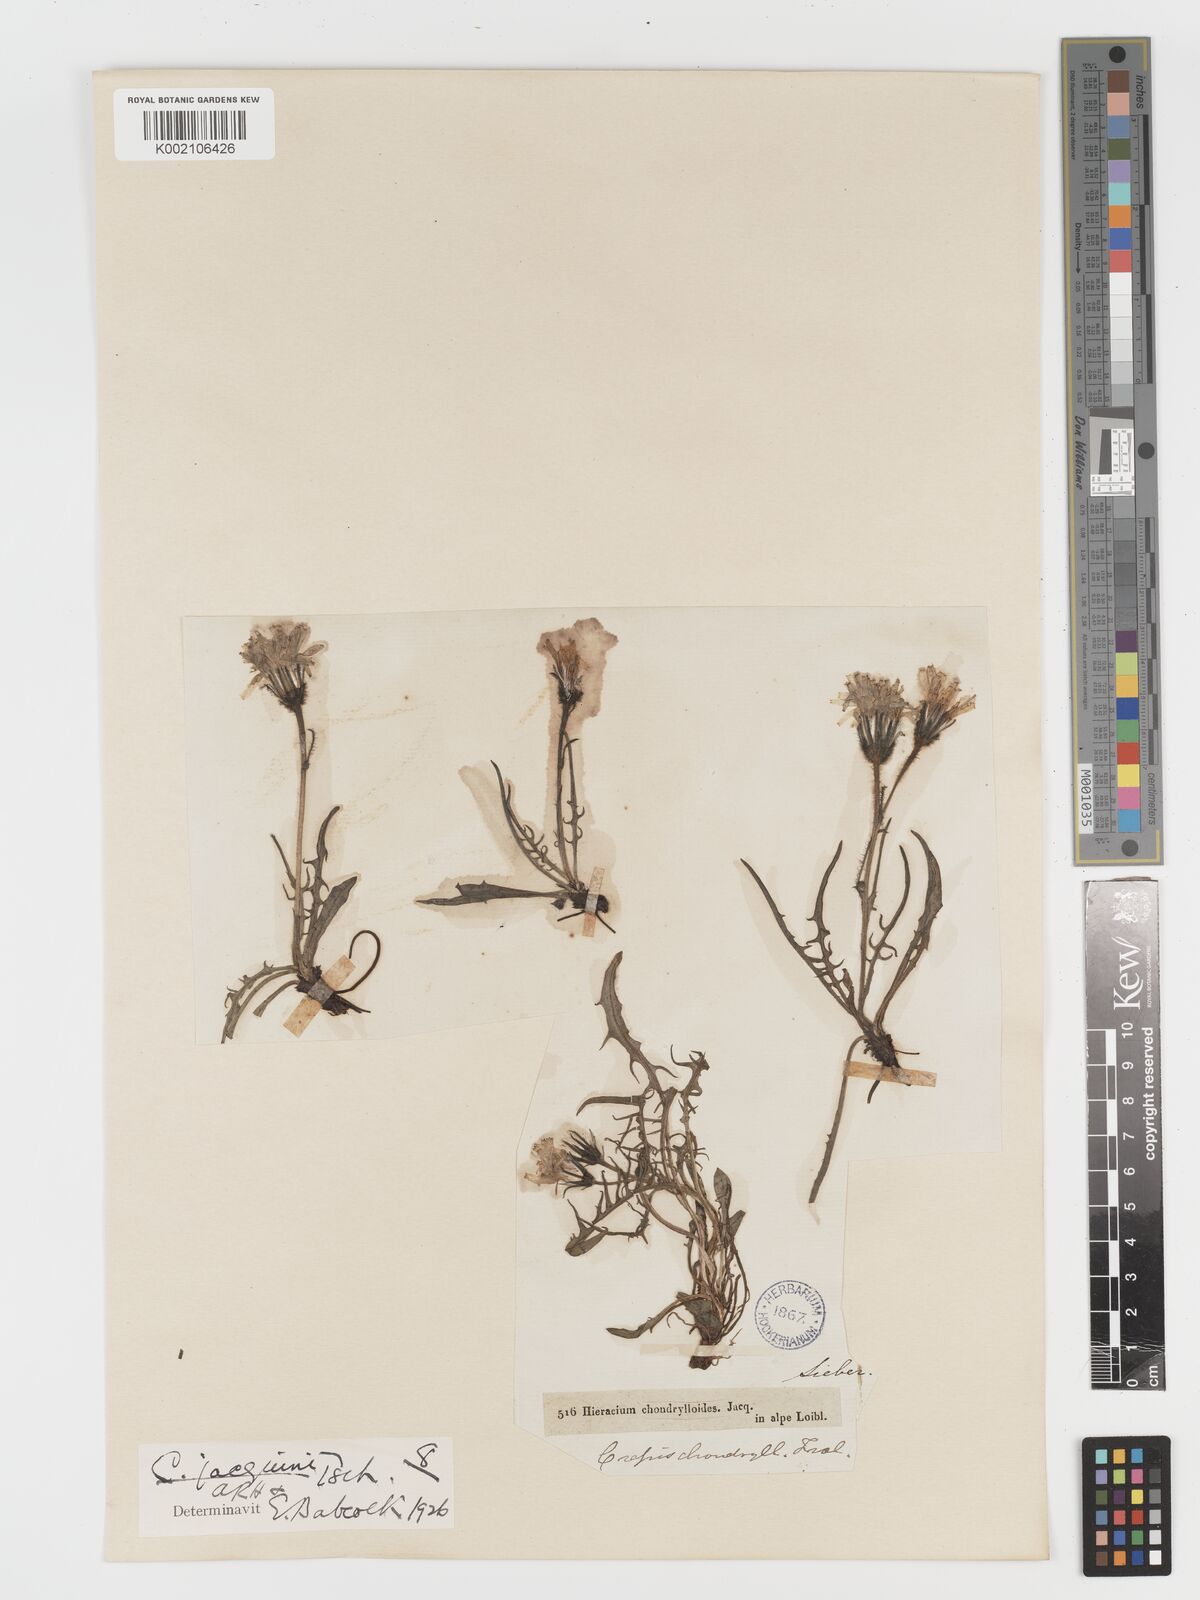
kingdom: Plantae
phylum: Tracheophyta
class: Magnoliopsida
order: Asterales
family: Asteraceae
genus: Crepis
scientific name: Crepis jacquinii
